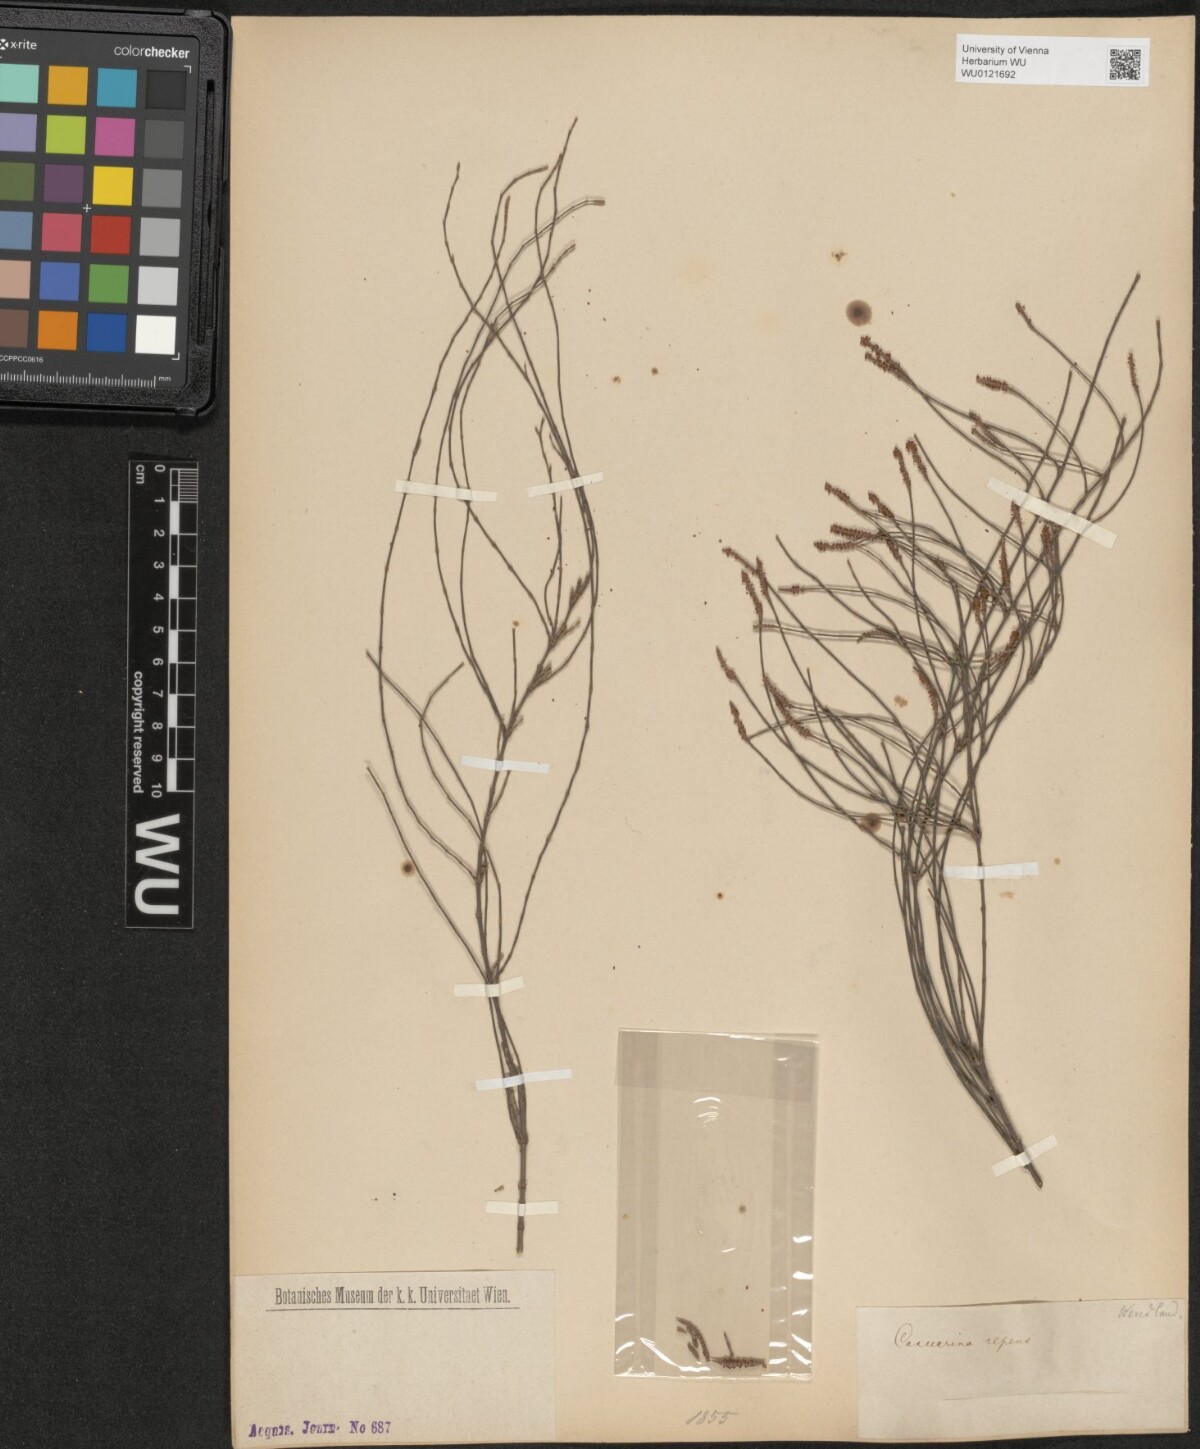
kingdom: Plantae
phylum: Tracheophyta
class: Magnoliopsida
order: Fagales
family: Casuarinaceae
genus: Casuarina
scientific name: Casuarina equisetifolia
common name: Beach sheoak
